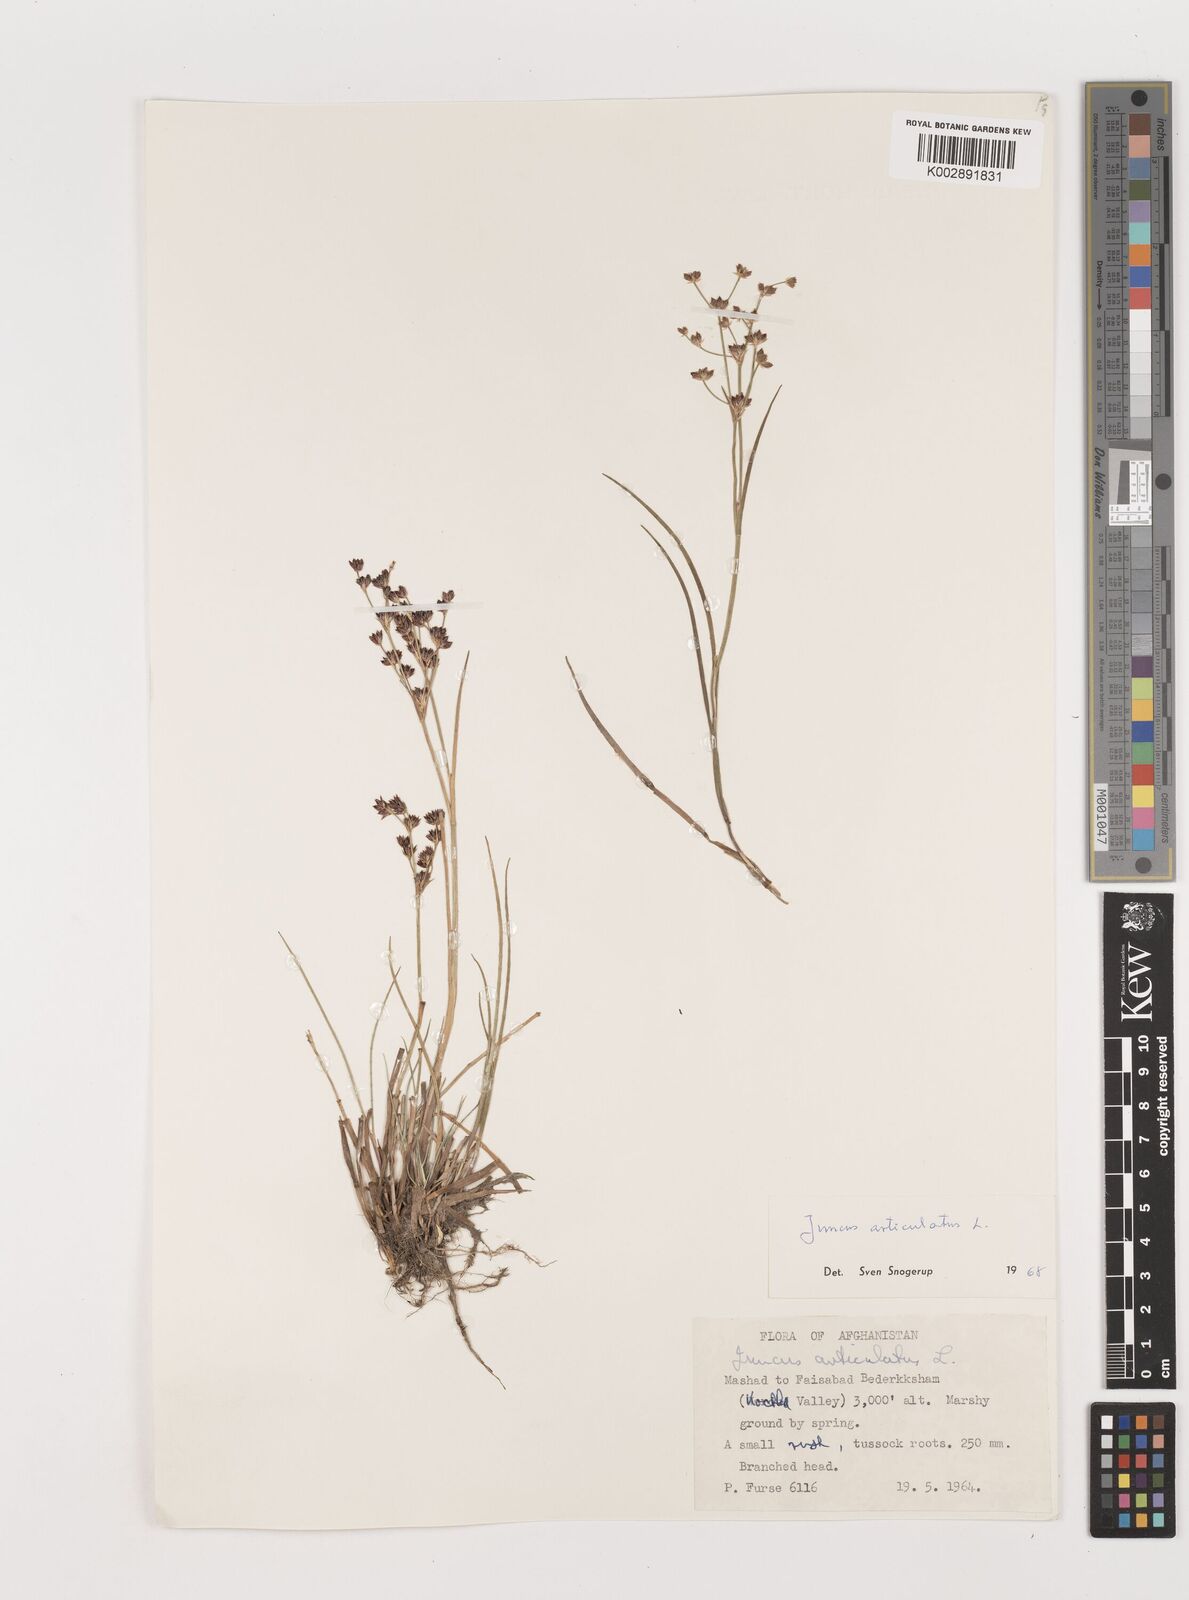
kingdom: Plantae
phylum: Tracheophyta
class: Liliopsida
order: Poales
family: Juncaceae
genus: Juncus
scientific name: Juncus articulatus
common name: Jointed rush
